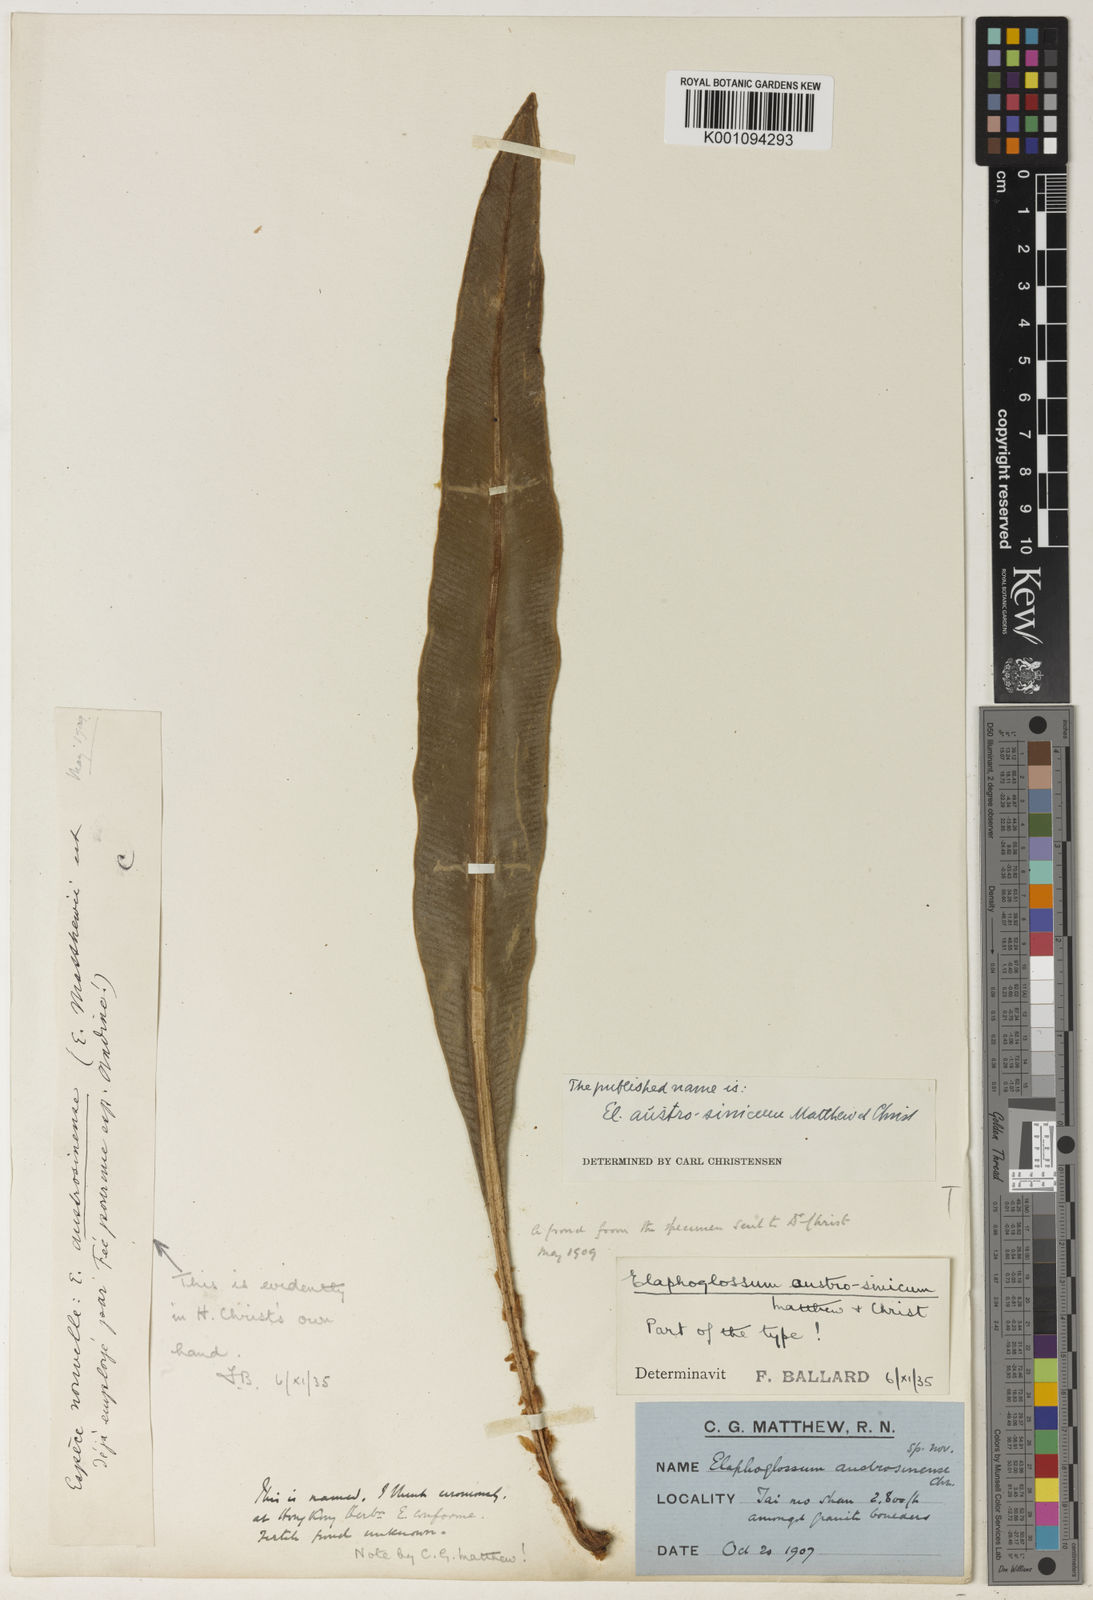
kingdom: Plantae
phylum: Tracheophyta
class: Polypodiopsida
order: Polypodiales
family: Dryopteridaceae
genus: Elaphoglossum
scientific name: Elaphoglossum yoshinagae
